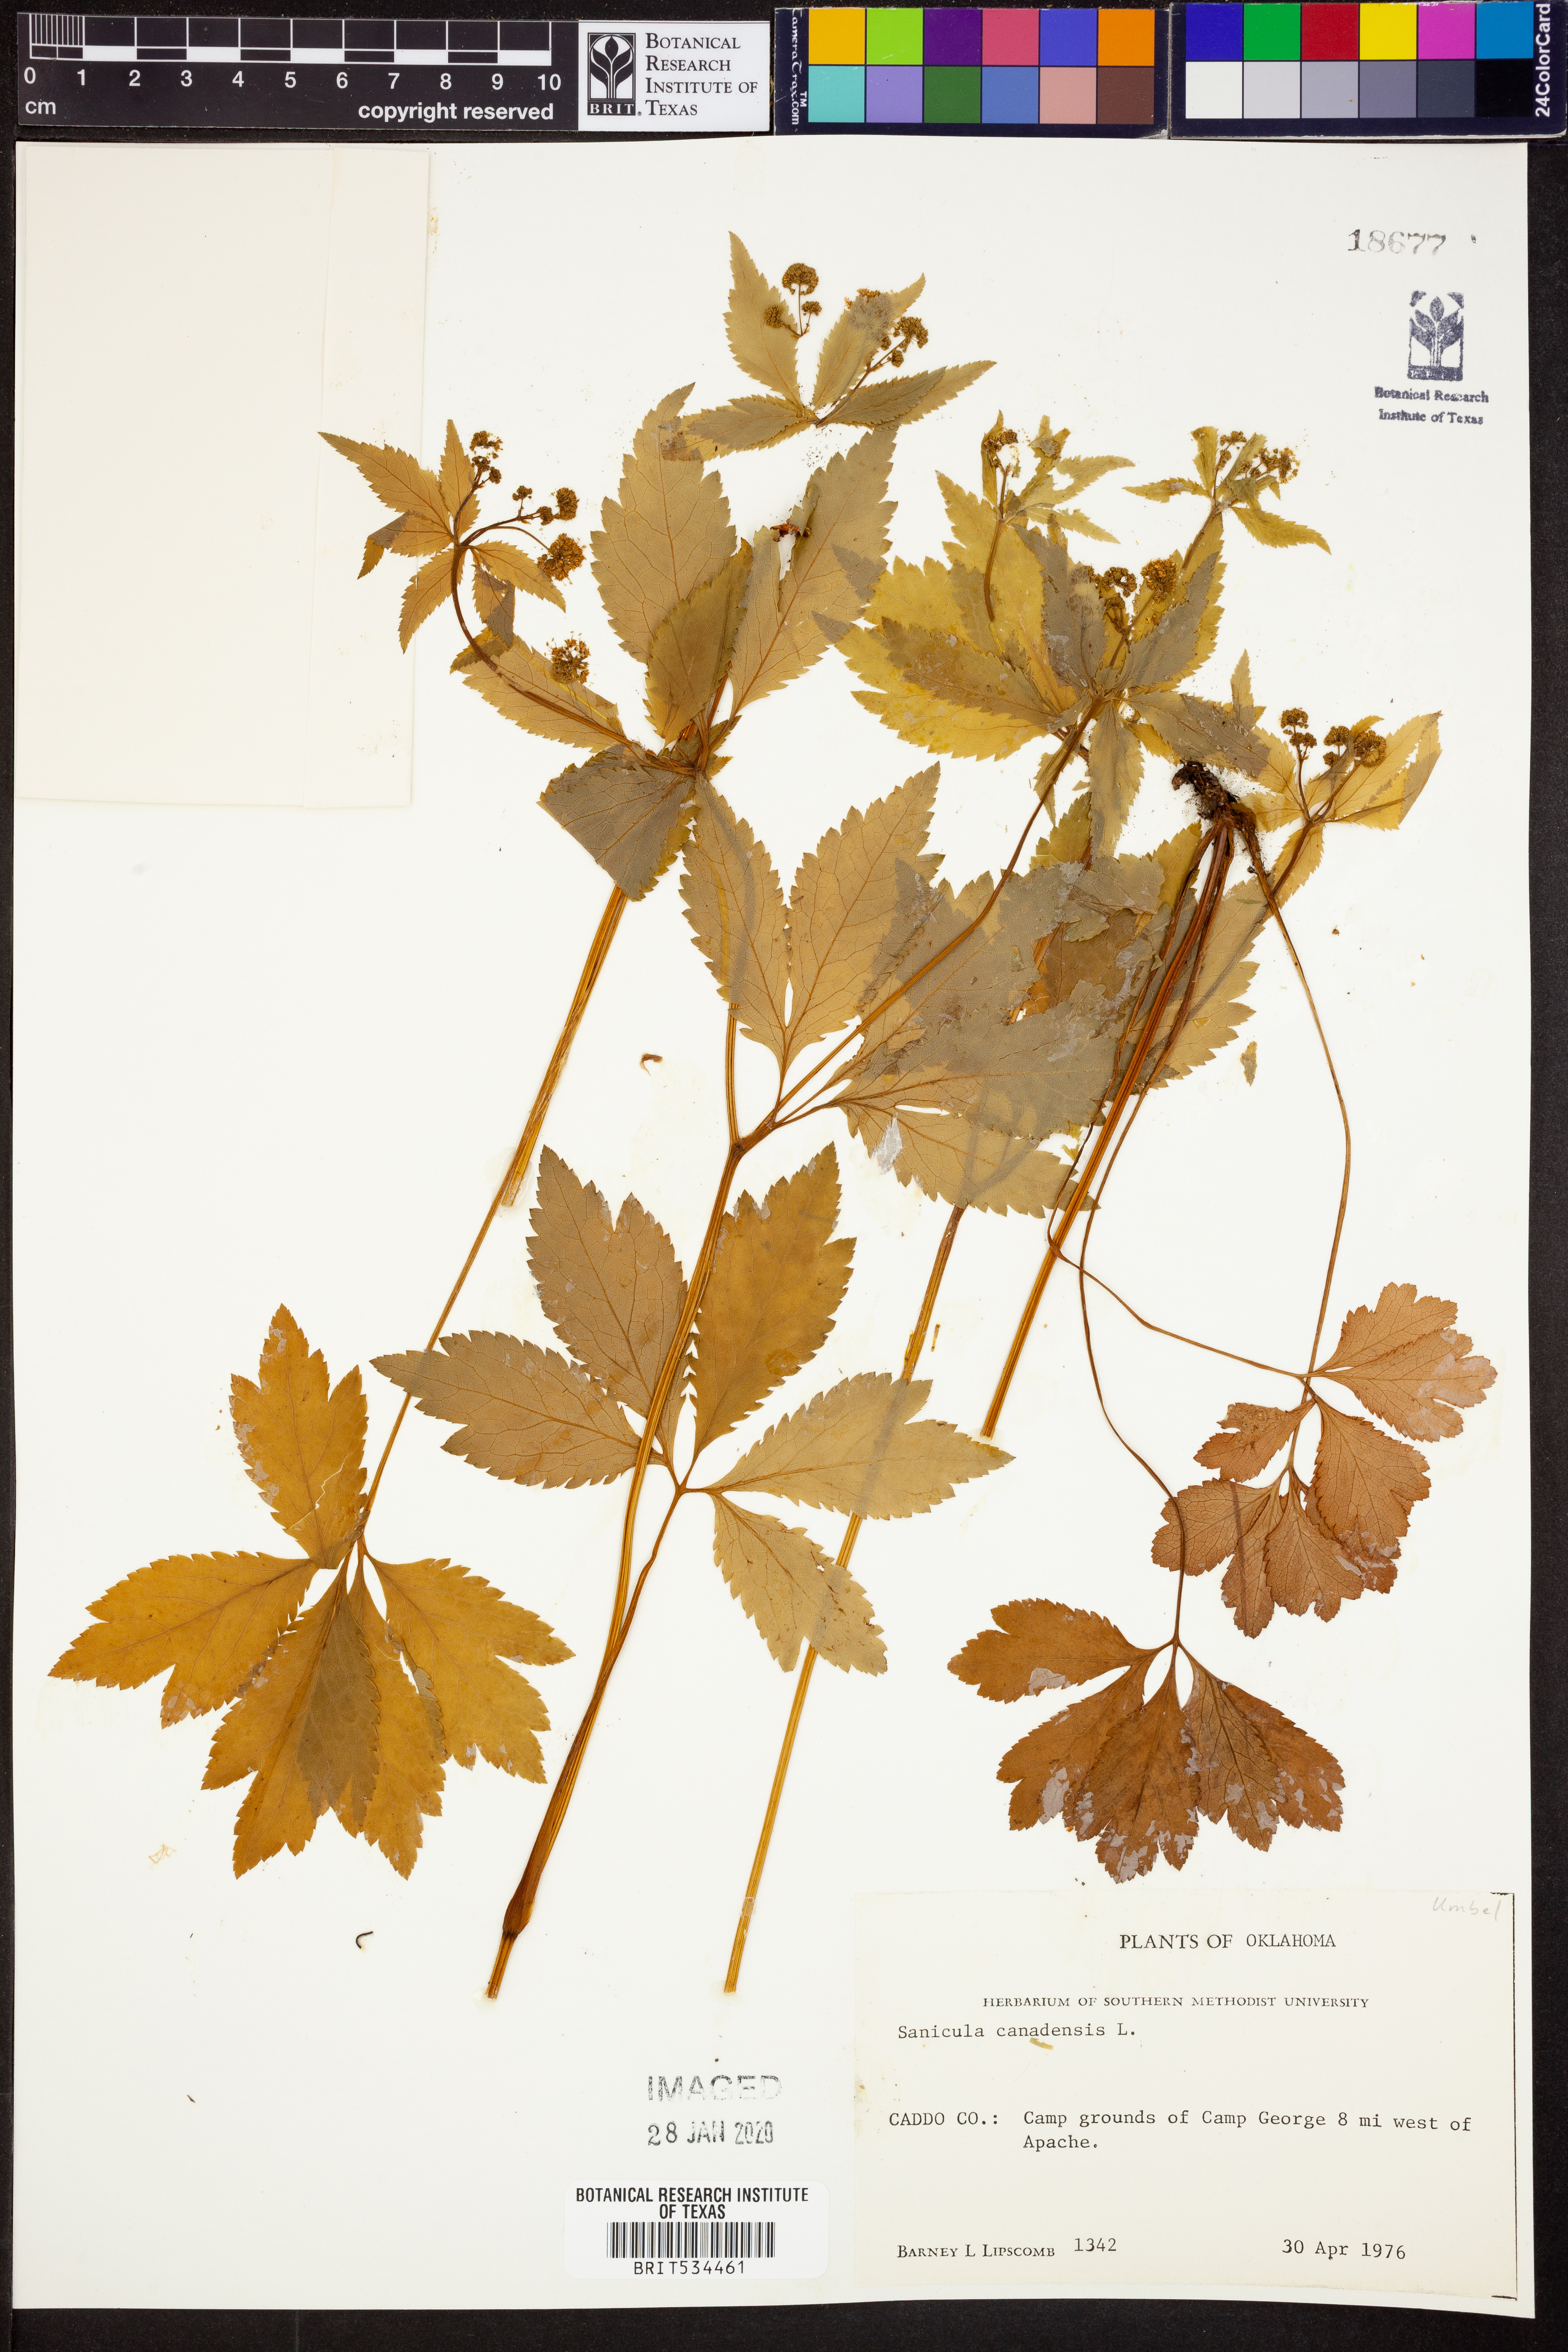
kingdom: Plantae
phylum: Tracheophyta
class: Magnoliopsida
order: Apiales
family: Apiaceae
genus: Sanicula
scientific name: Sanicula canadensis
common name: Canada sanicle
